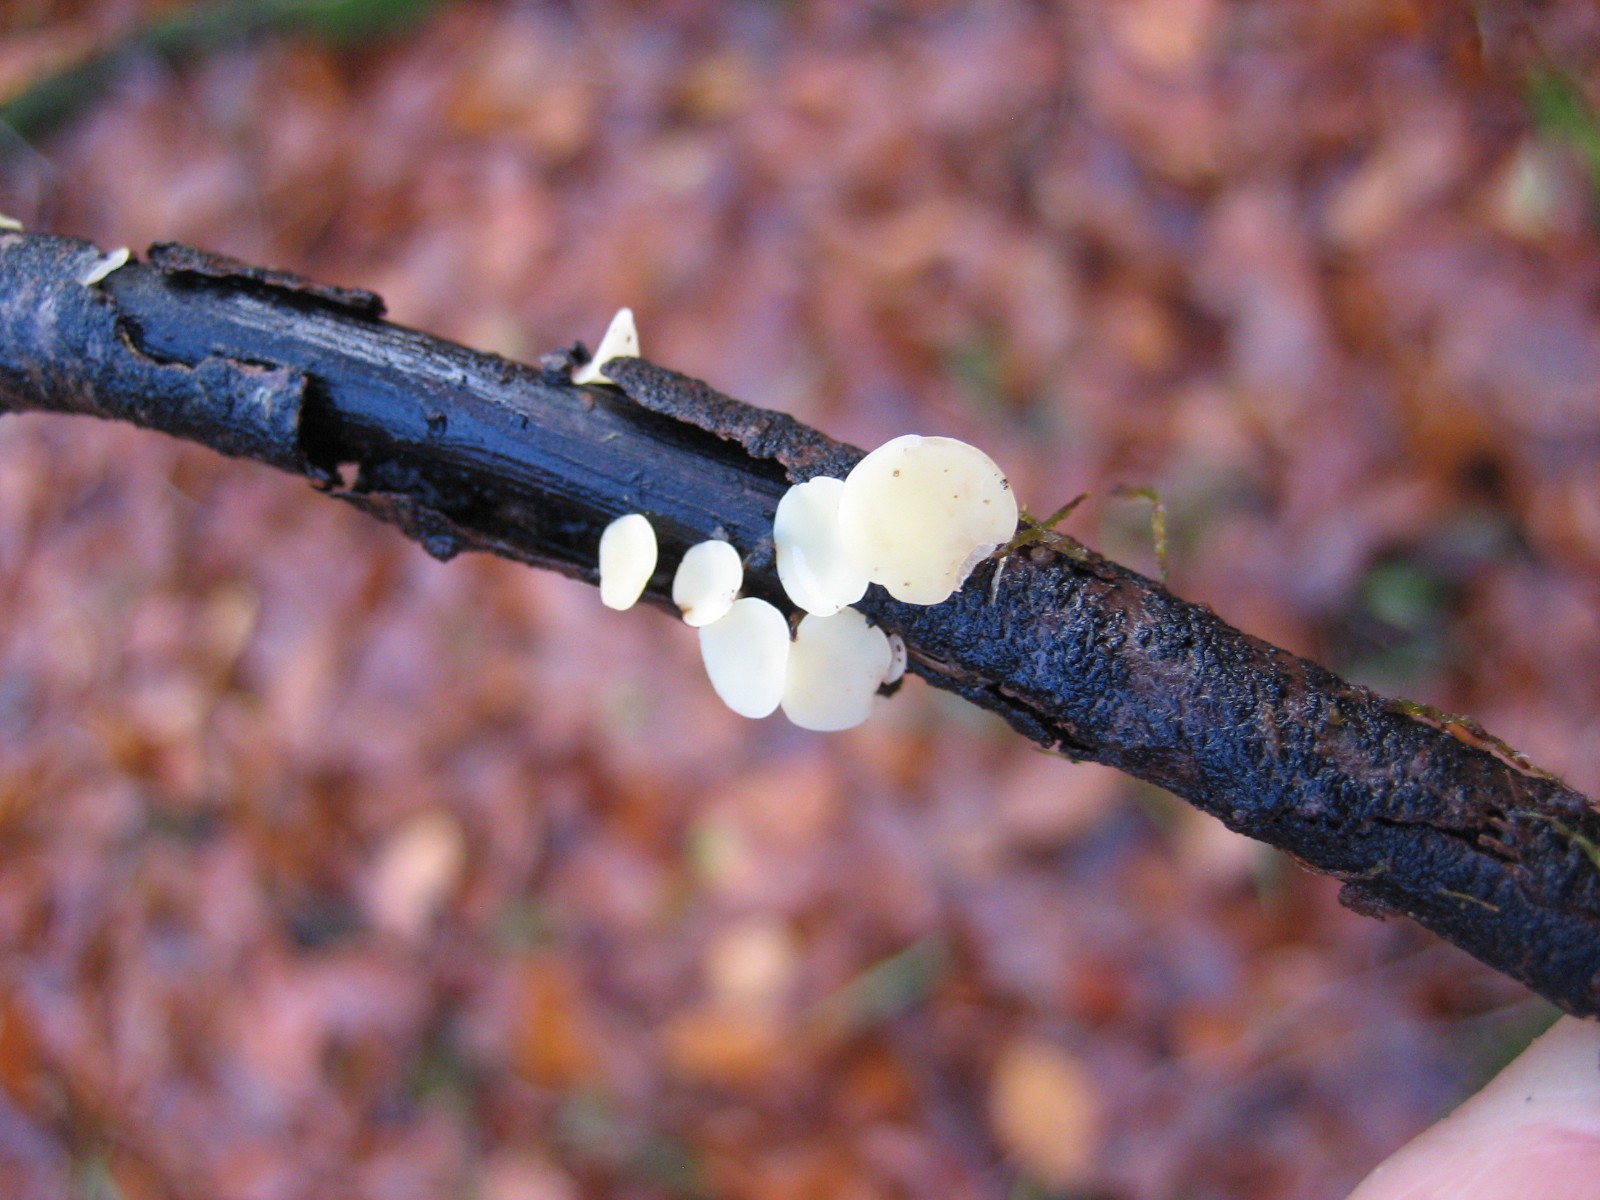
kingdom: Fungi
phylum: Ascomycota
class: Leotiomycetes
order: Helotiales
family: Helotiaceae
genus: Hymenoscyphus
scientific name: Hymenoscyphus serotinus
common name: krumsporet stilkskive
